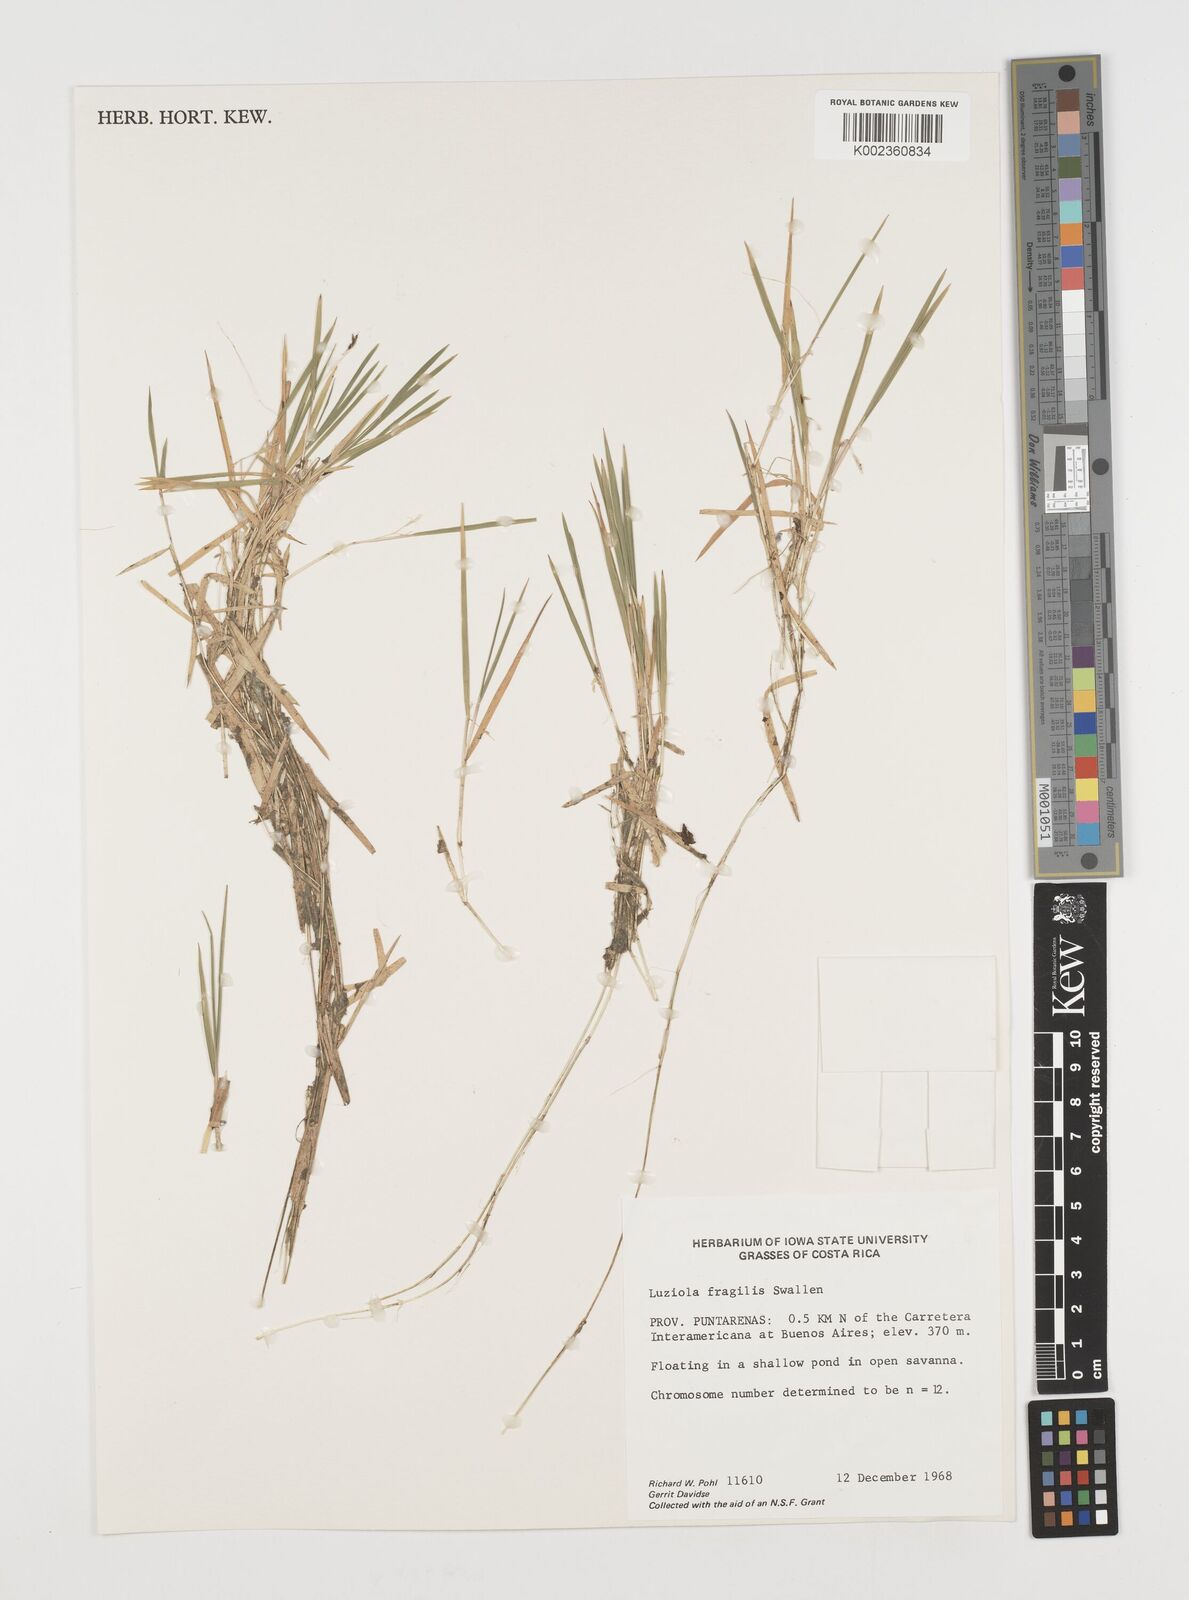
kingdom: Plantae
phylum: Tracheophyta
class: Liliopsida
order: Poales
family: Poaceae
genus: Luziola
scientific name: Luziola fragilis
